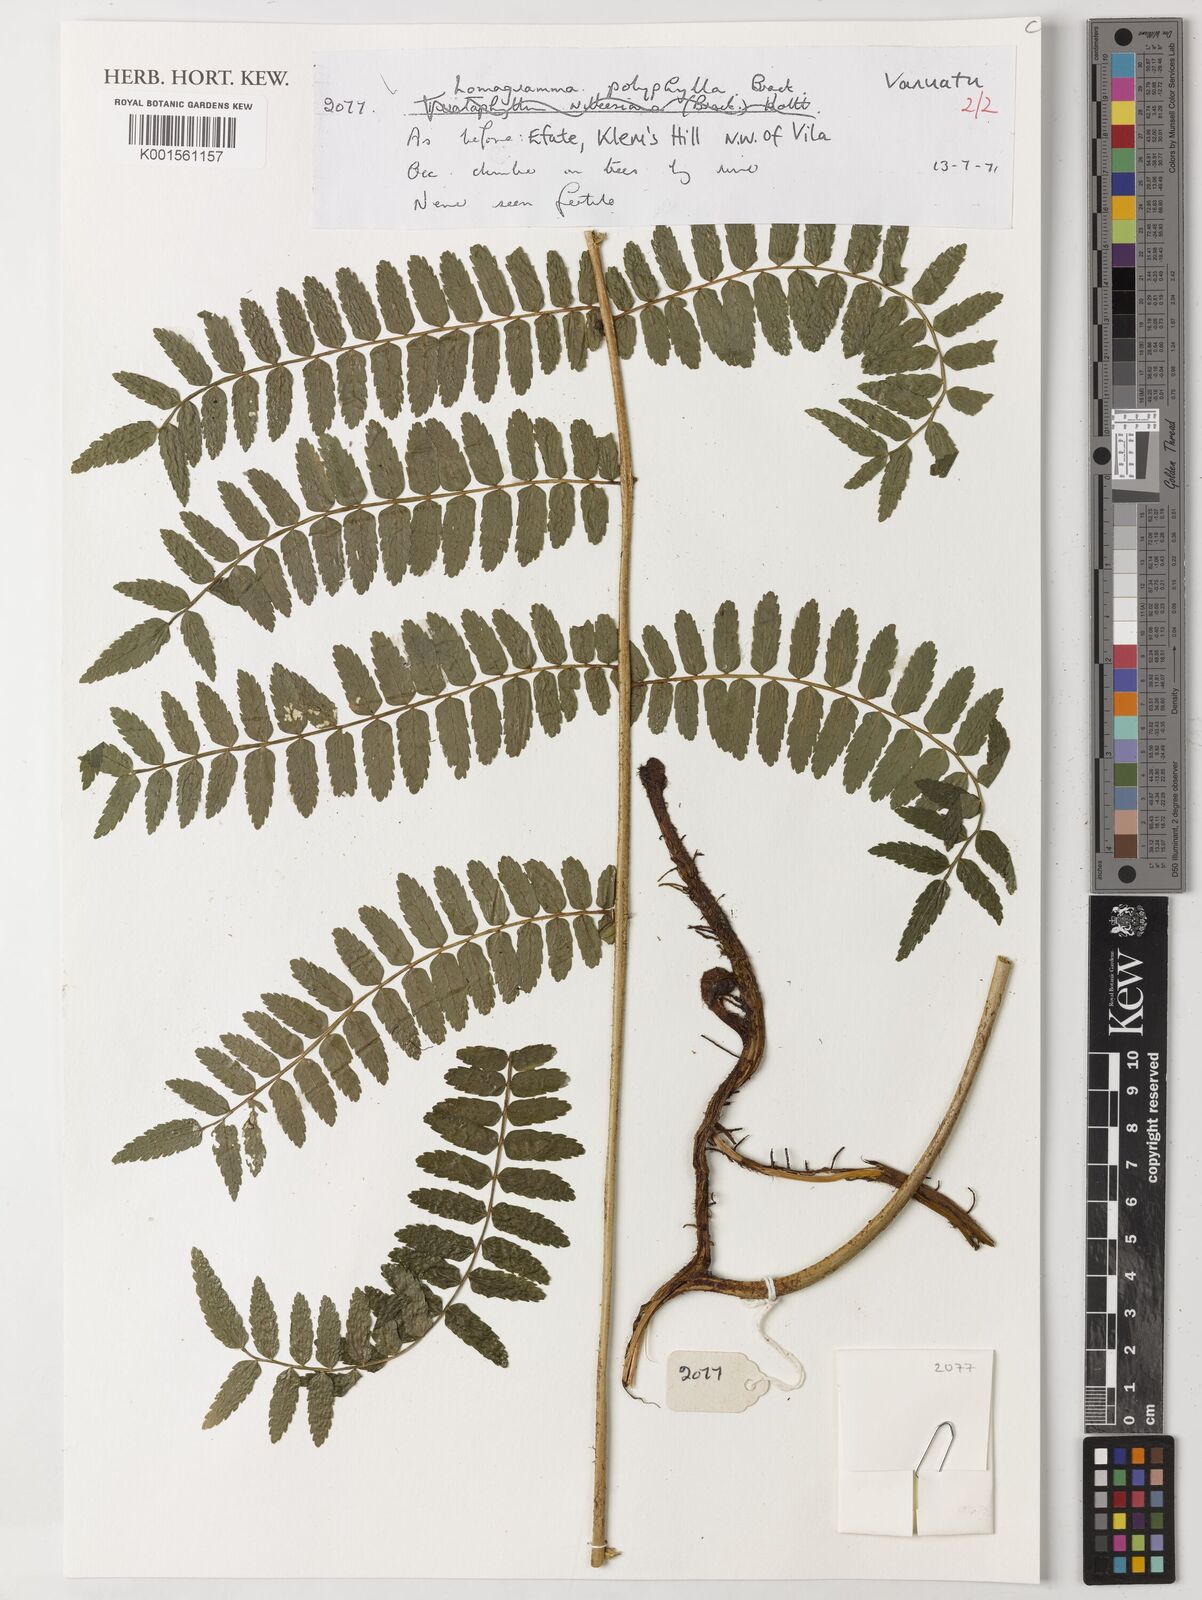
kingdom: Plantae
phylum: Tracheophyta
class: Polypodiopsida
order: Polypodiales
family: Dryopteridaceae
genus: Lomagramma
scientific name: Lomagramma polyphylla
